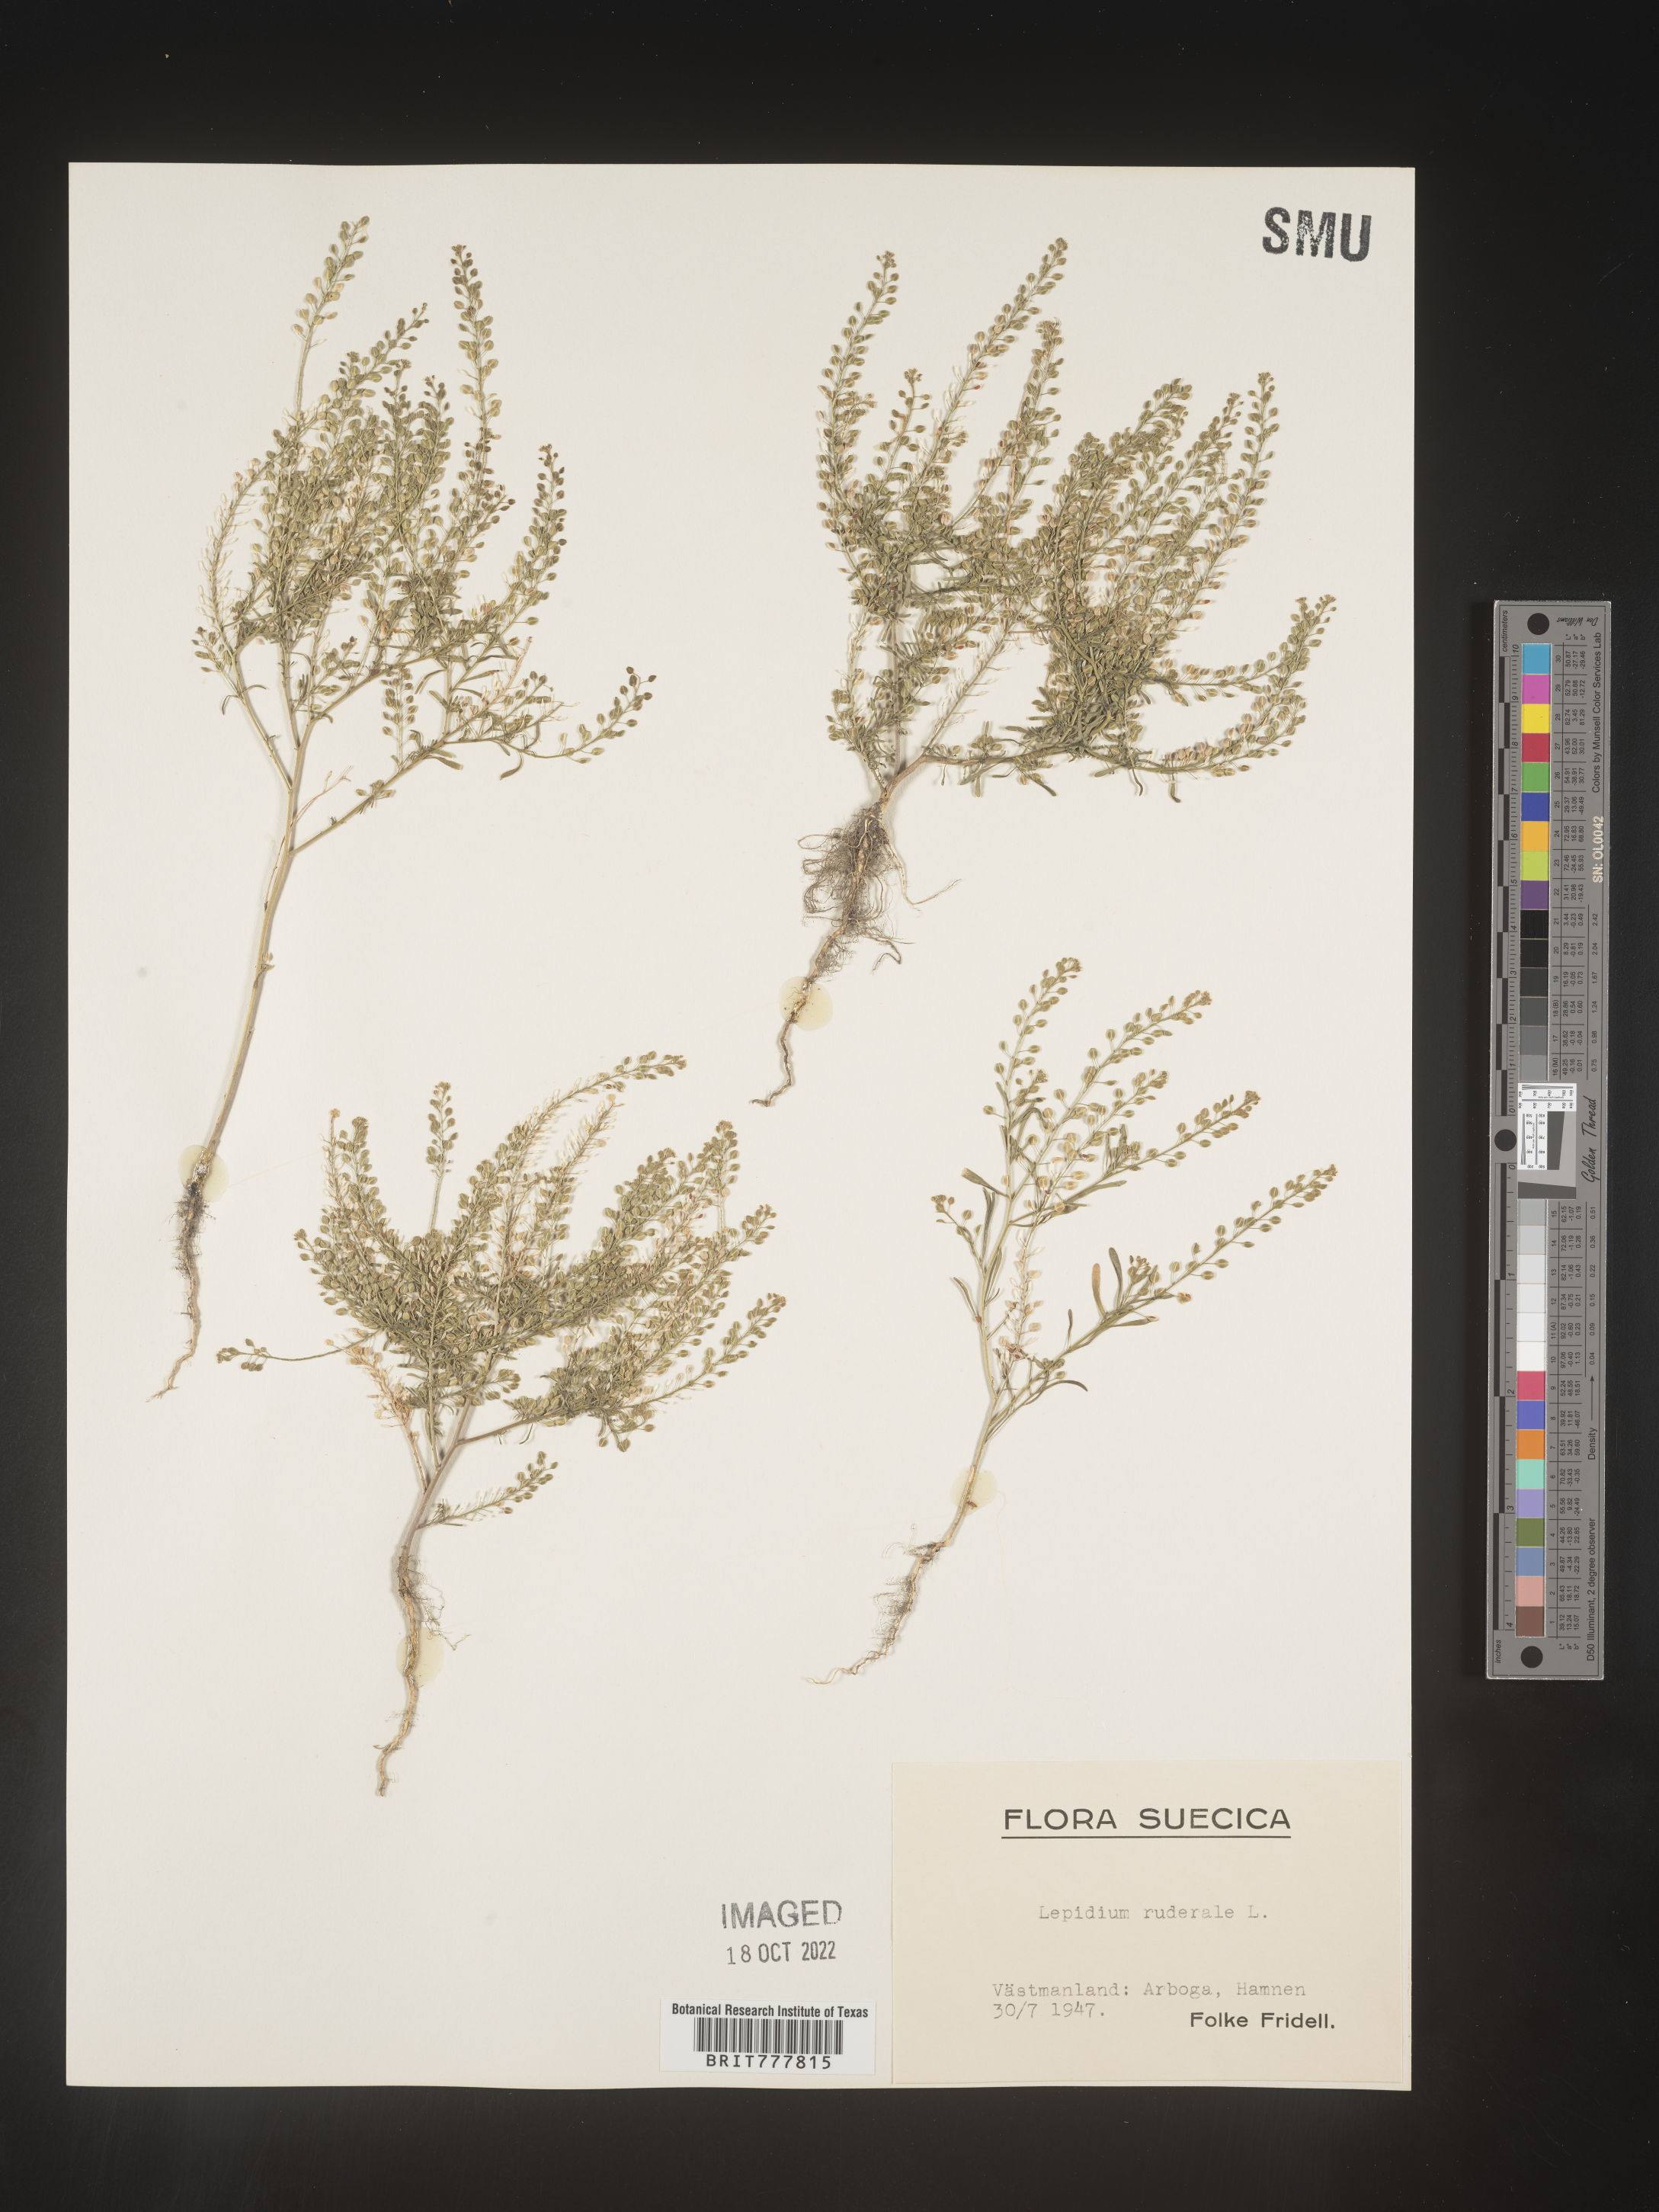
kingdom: Plantae
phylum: Tracheophyta
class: Magnoliopsida
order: Brassicales
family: Brassicaceae
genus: Lepidium
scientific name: Lepidium
